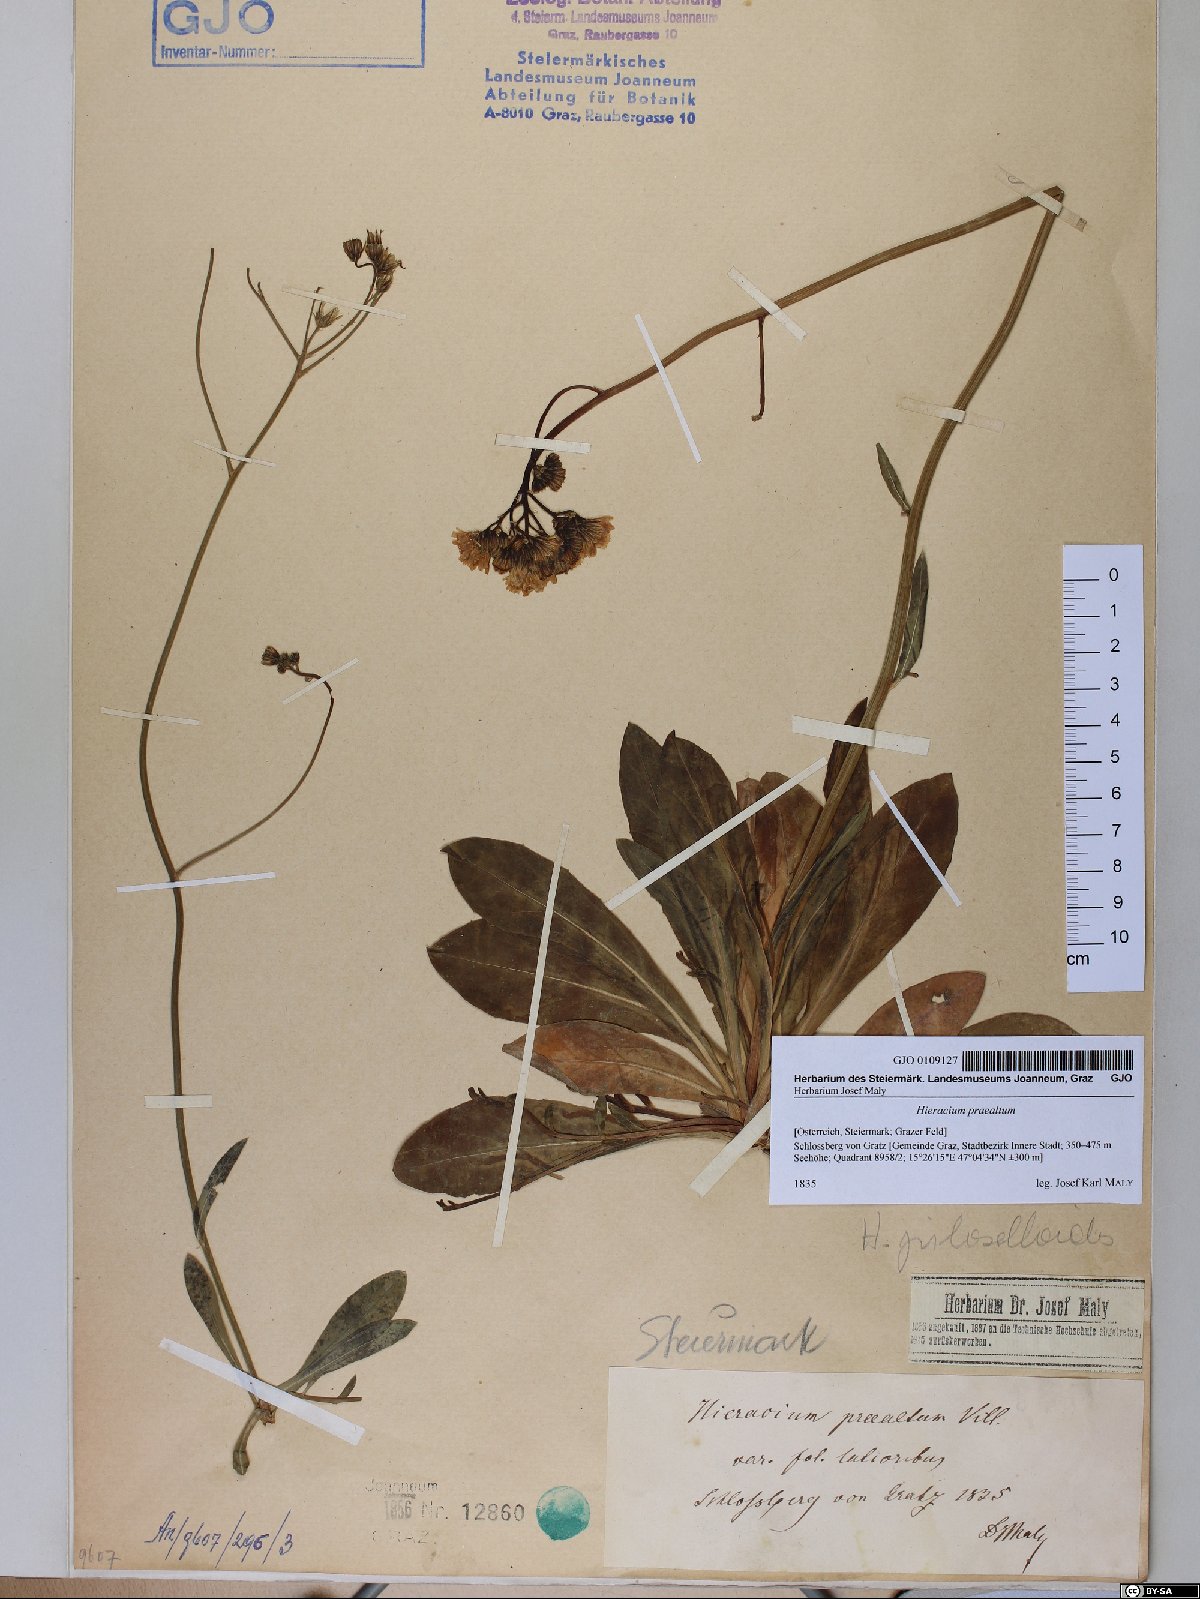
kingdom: Plantae
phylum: Tracheophyta
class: Magnoliopsida
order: Asterales
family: Asteraceae
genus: Pilosella
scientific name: Pilosella piloselloides
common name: Glaucous king-devil
